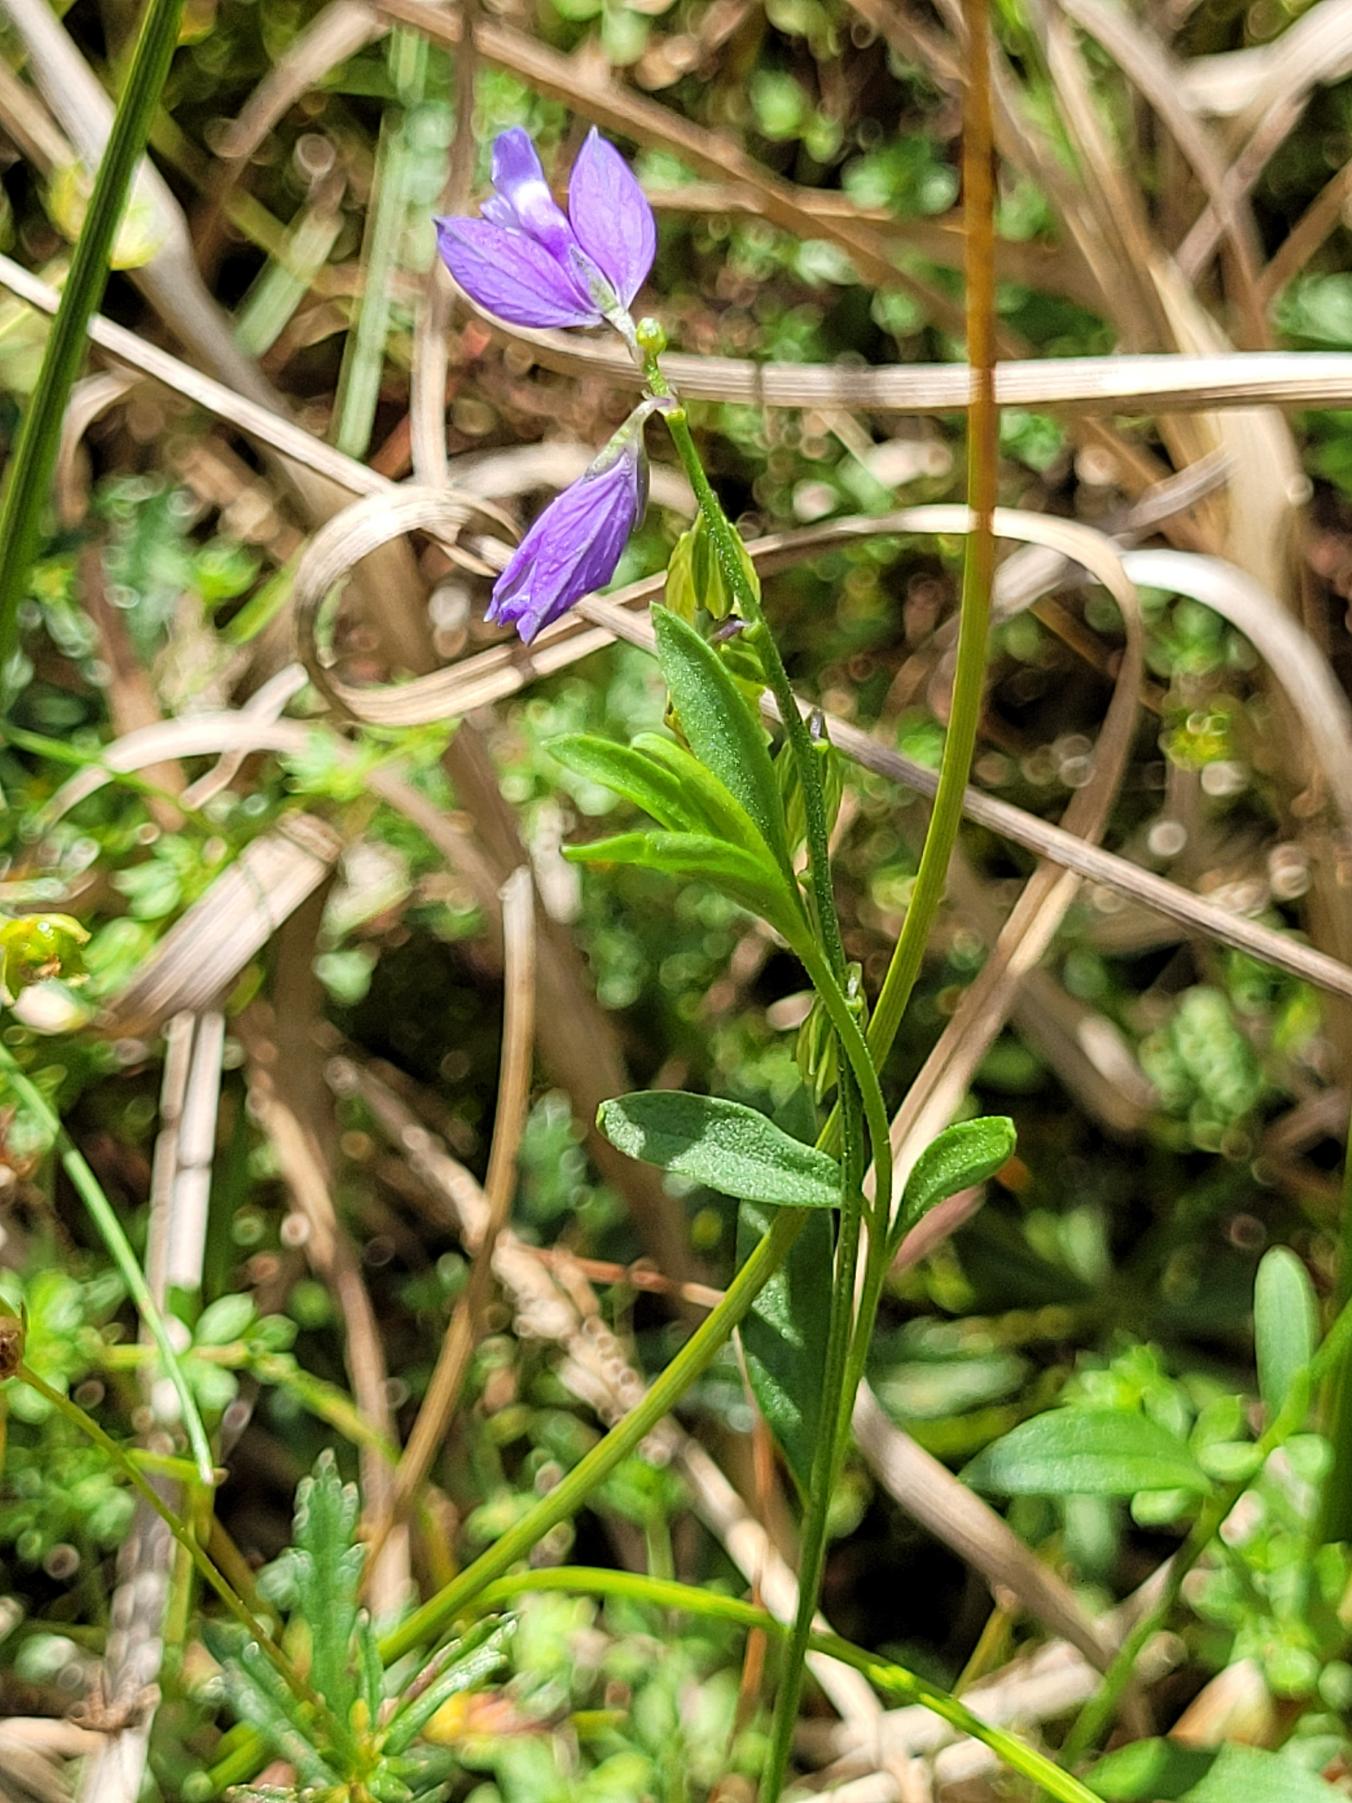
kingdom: Plantae
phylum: Tracheophyta
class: Magnoliopsida
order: Fabales
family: Polygalaceae
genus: Polygala
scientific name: Polygala vulgaris
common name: Almindelig mælkeurt
